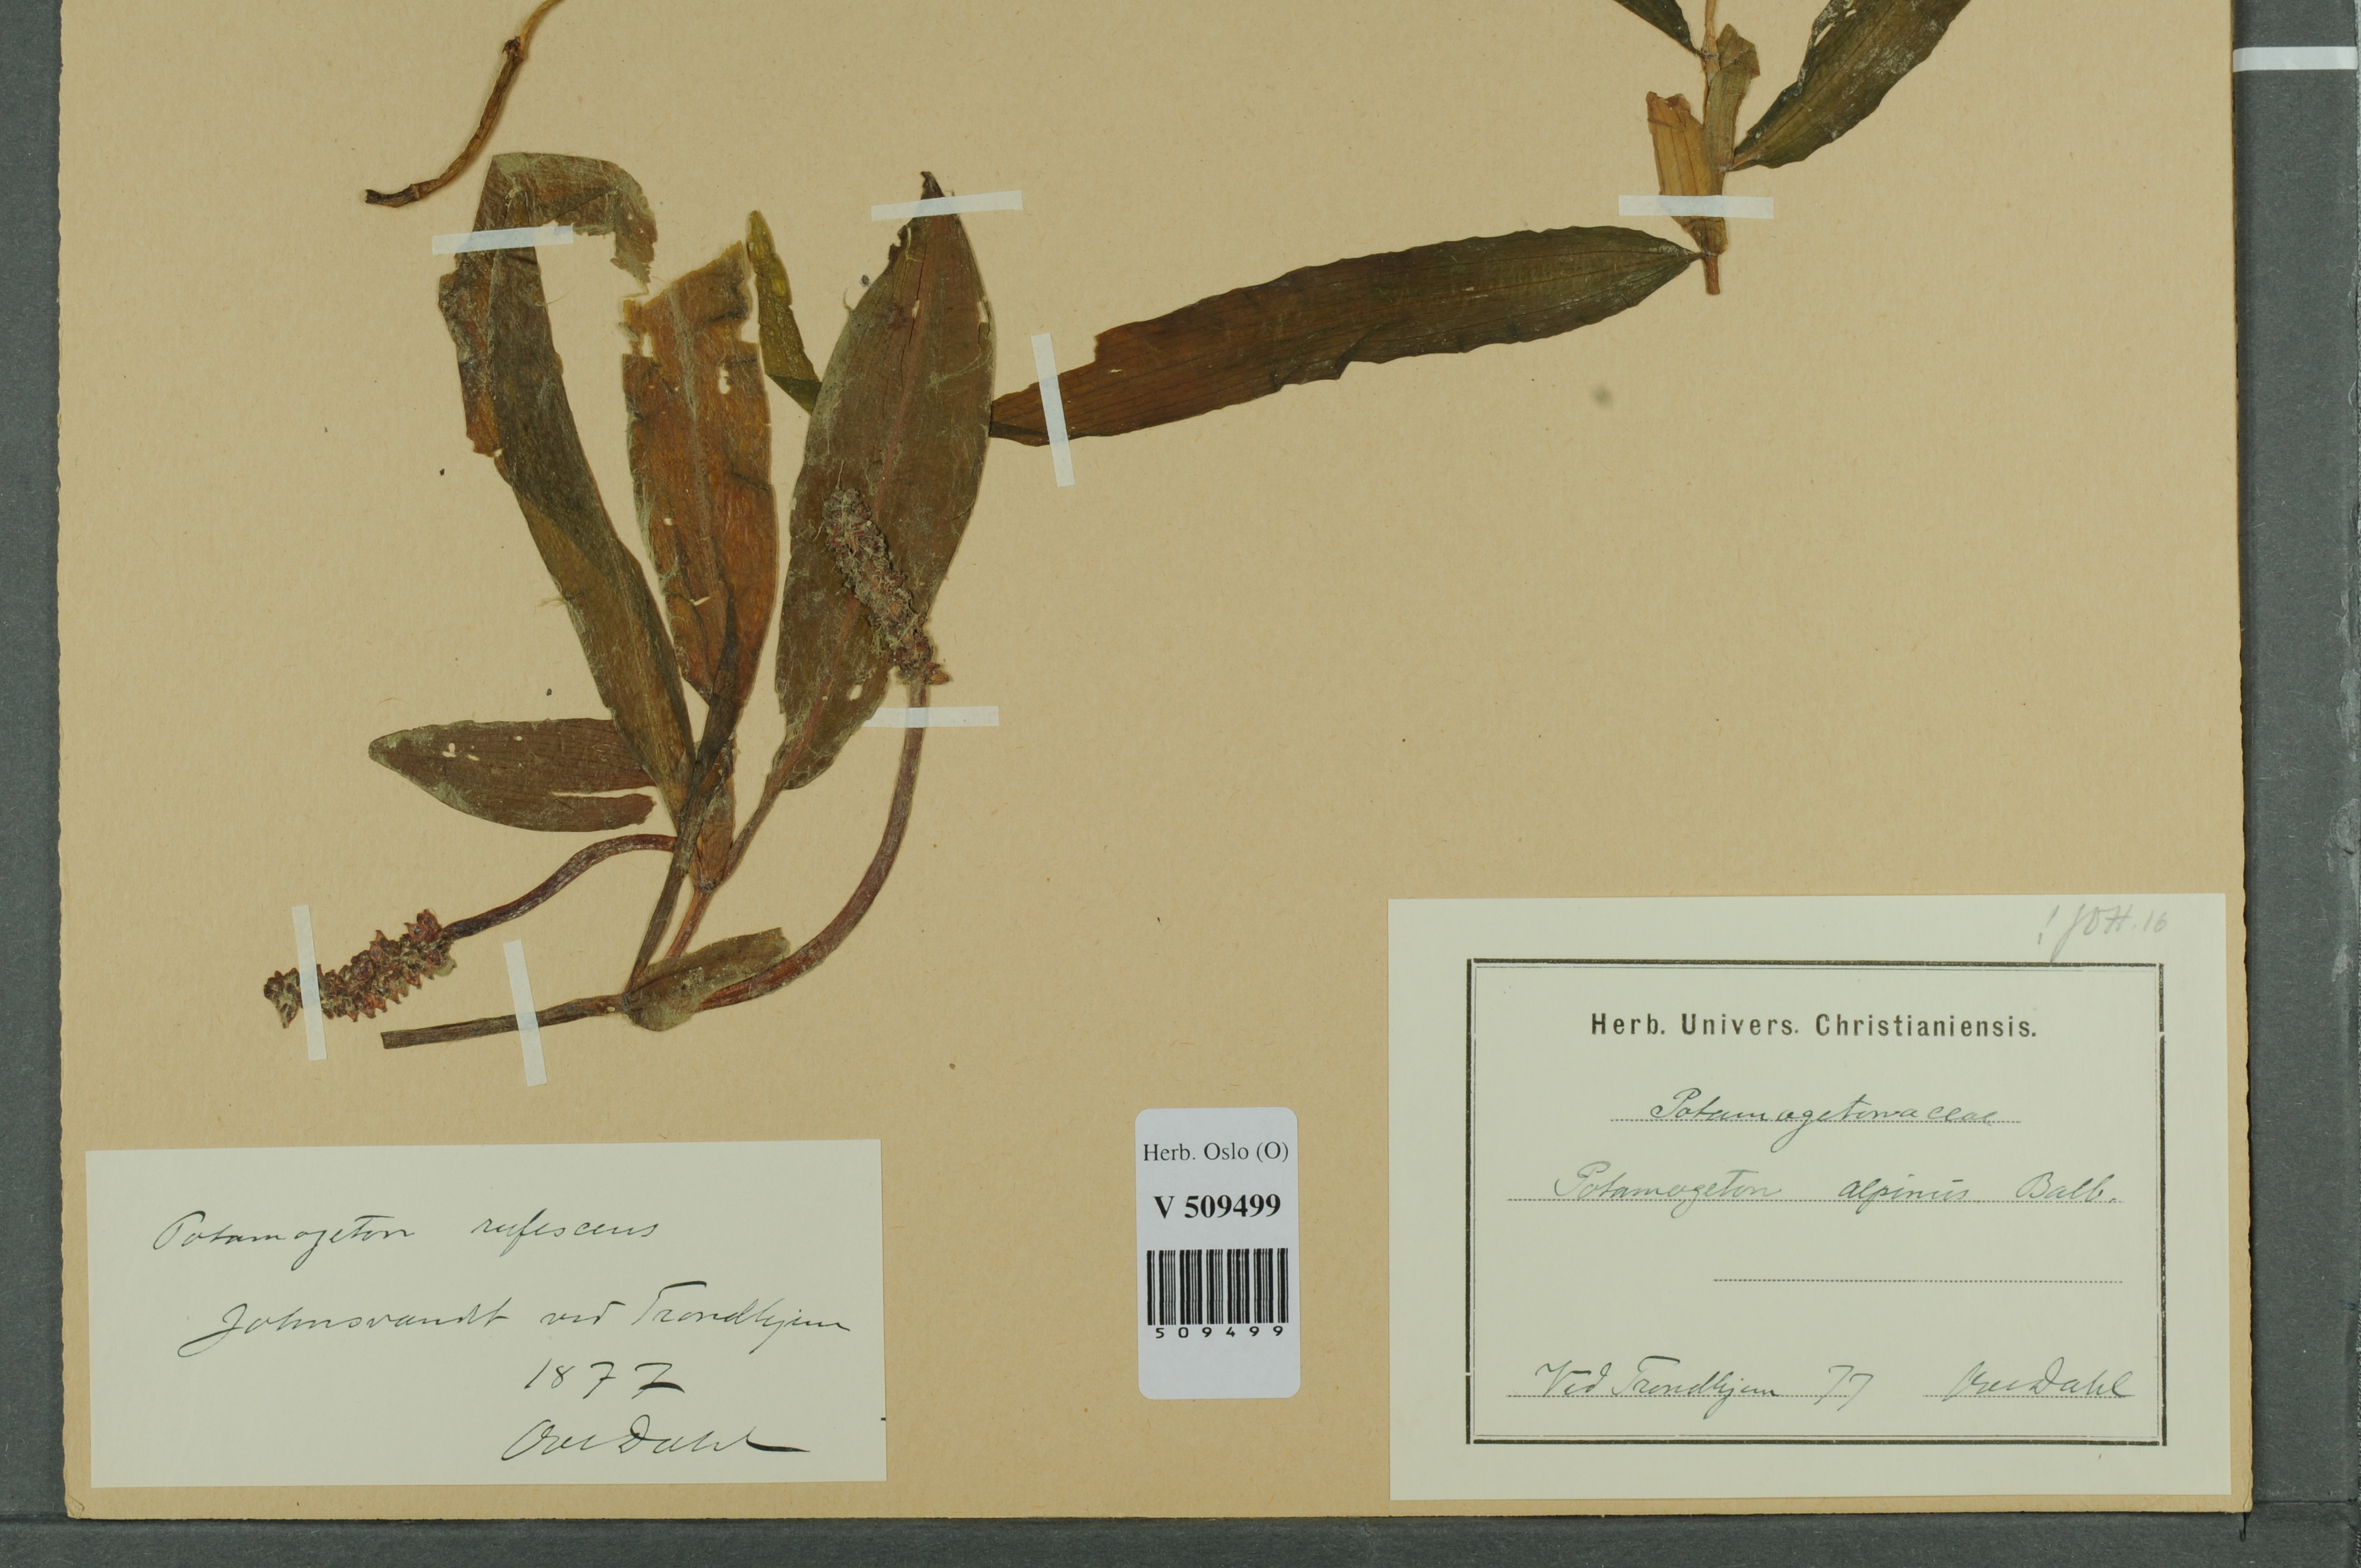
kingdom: Plantae
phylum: Tracheophyta
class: Liliopsida
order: Alismatales
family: Potamogetonaceae
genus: Potamogeton
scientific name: Potamogeton alpinus
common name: Red pondweed
